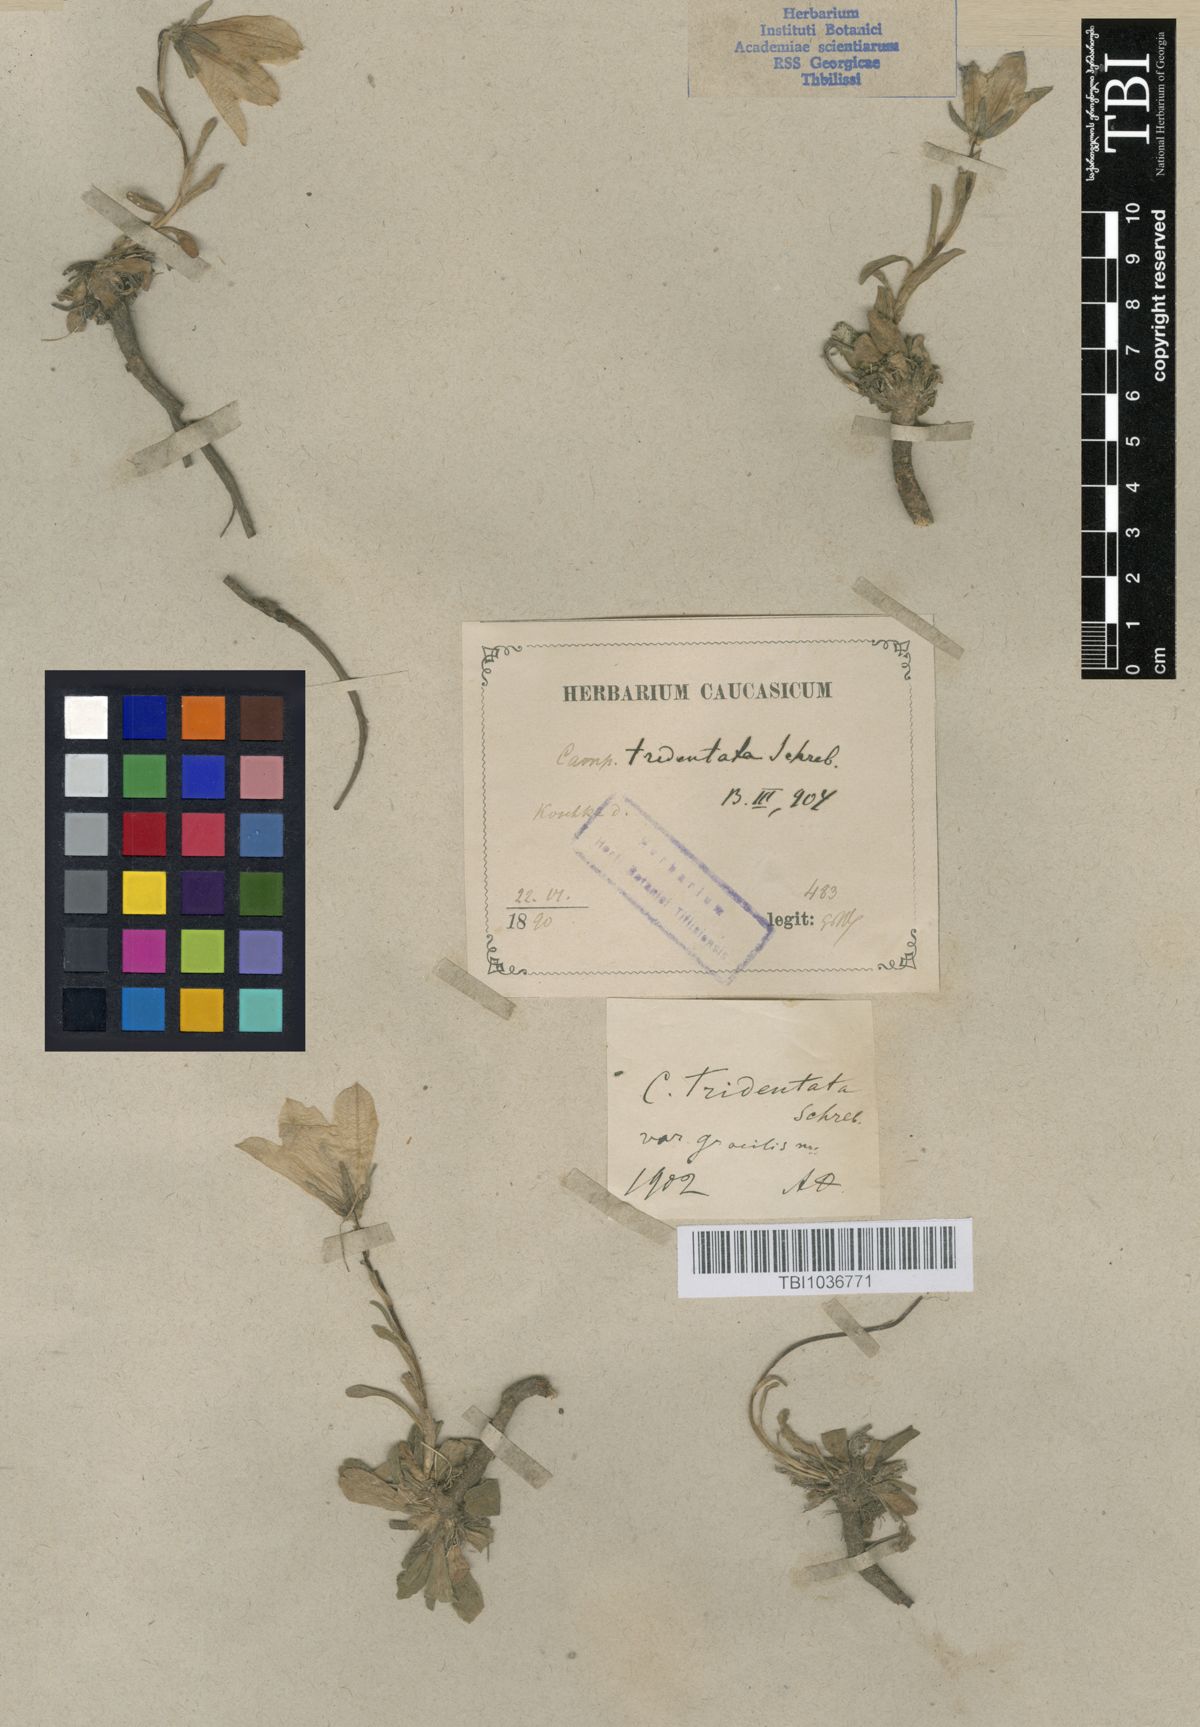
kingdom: Plantae
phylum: Tracheophyta
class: Magnoliopsida
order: Asterales
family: Campanulaceae
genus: Campanula
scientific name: Campanula tridentata
